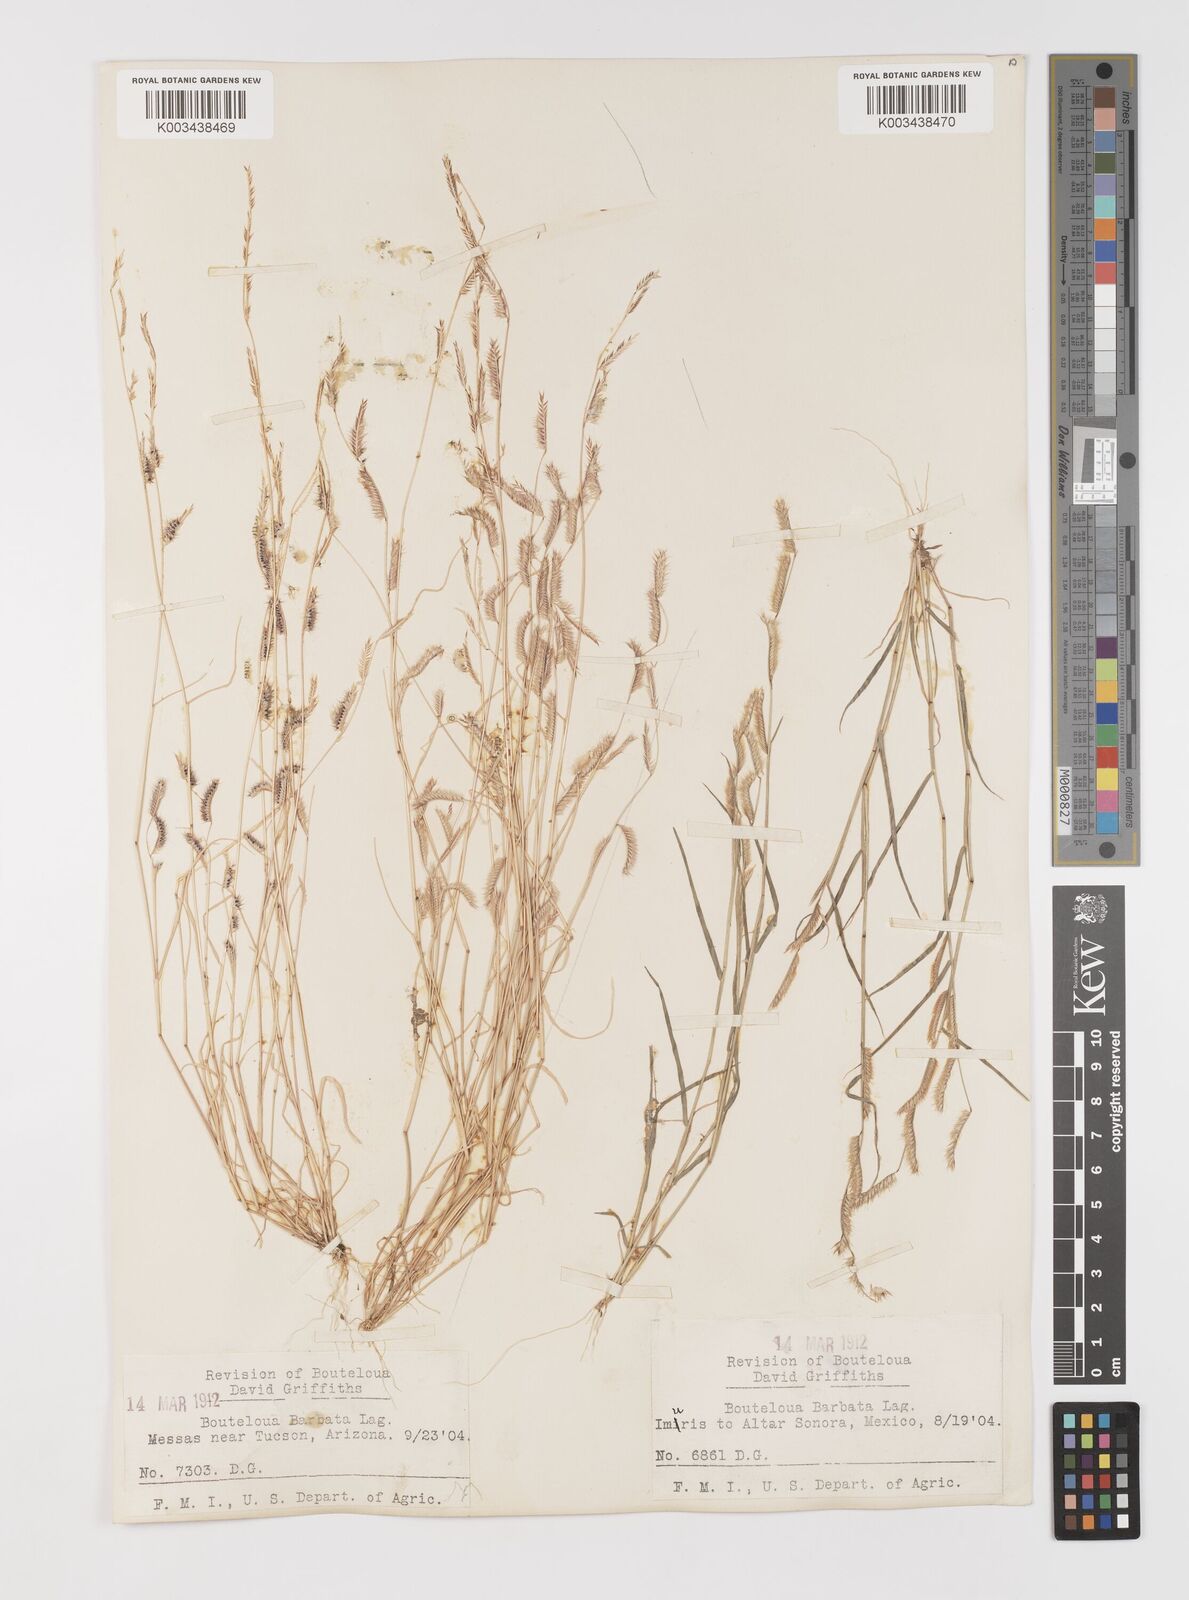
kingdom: Plantae
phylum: Tracheophyta
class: Liliopsida
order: Poales
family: Poaceae
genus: Bouteloua
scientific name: Bouteloua
